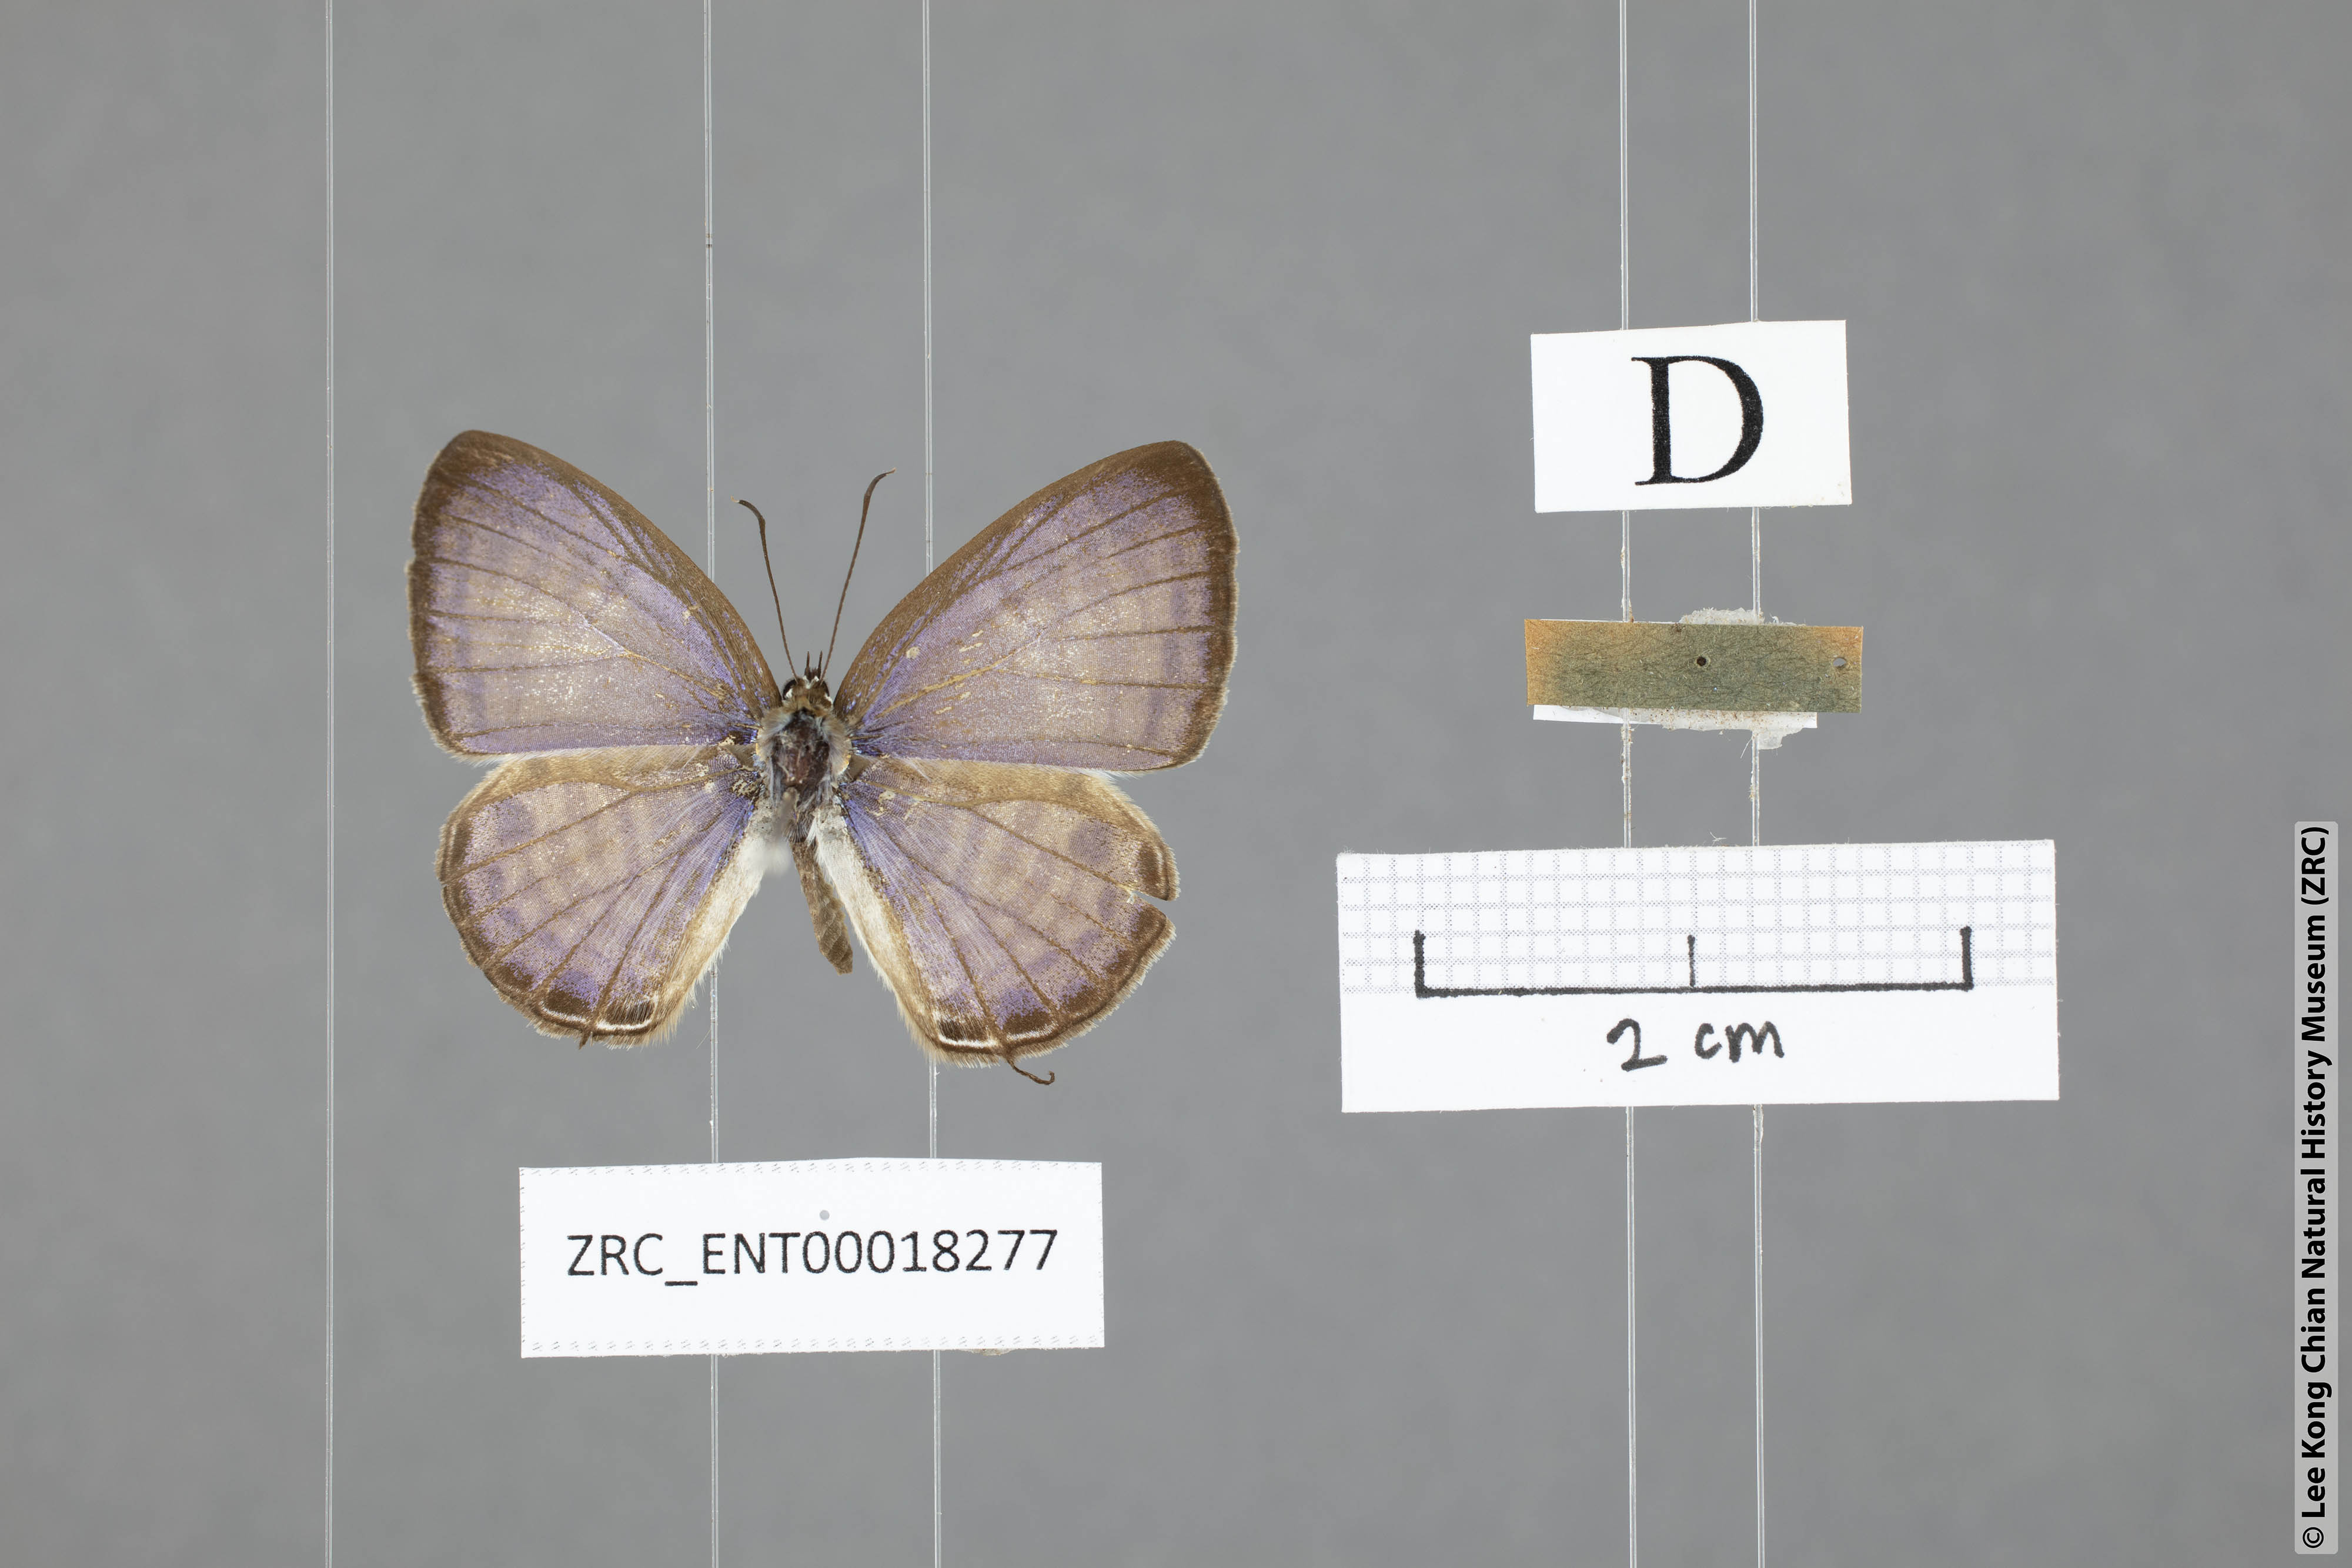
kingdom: Animalia
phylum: Arthropoda
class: Insecta
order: Lepidoptera
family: Lycaenidae
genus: Nacaduba
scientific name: Nacaduba angusta
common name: White four-line blue
